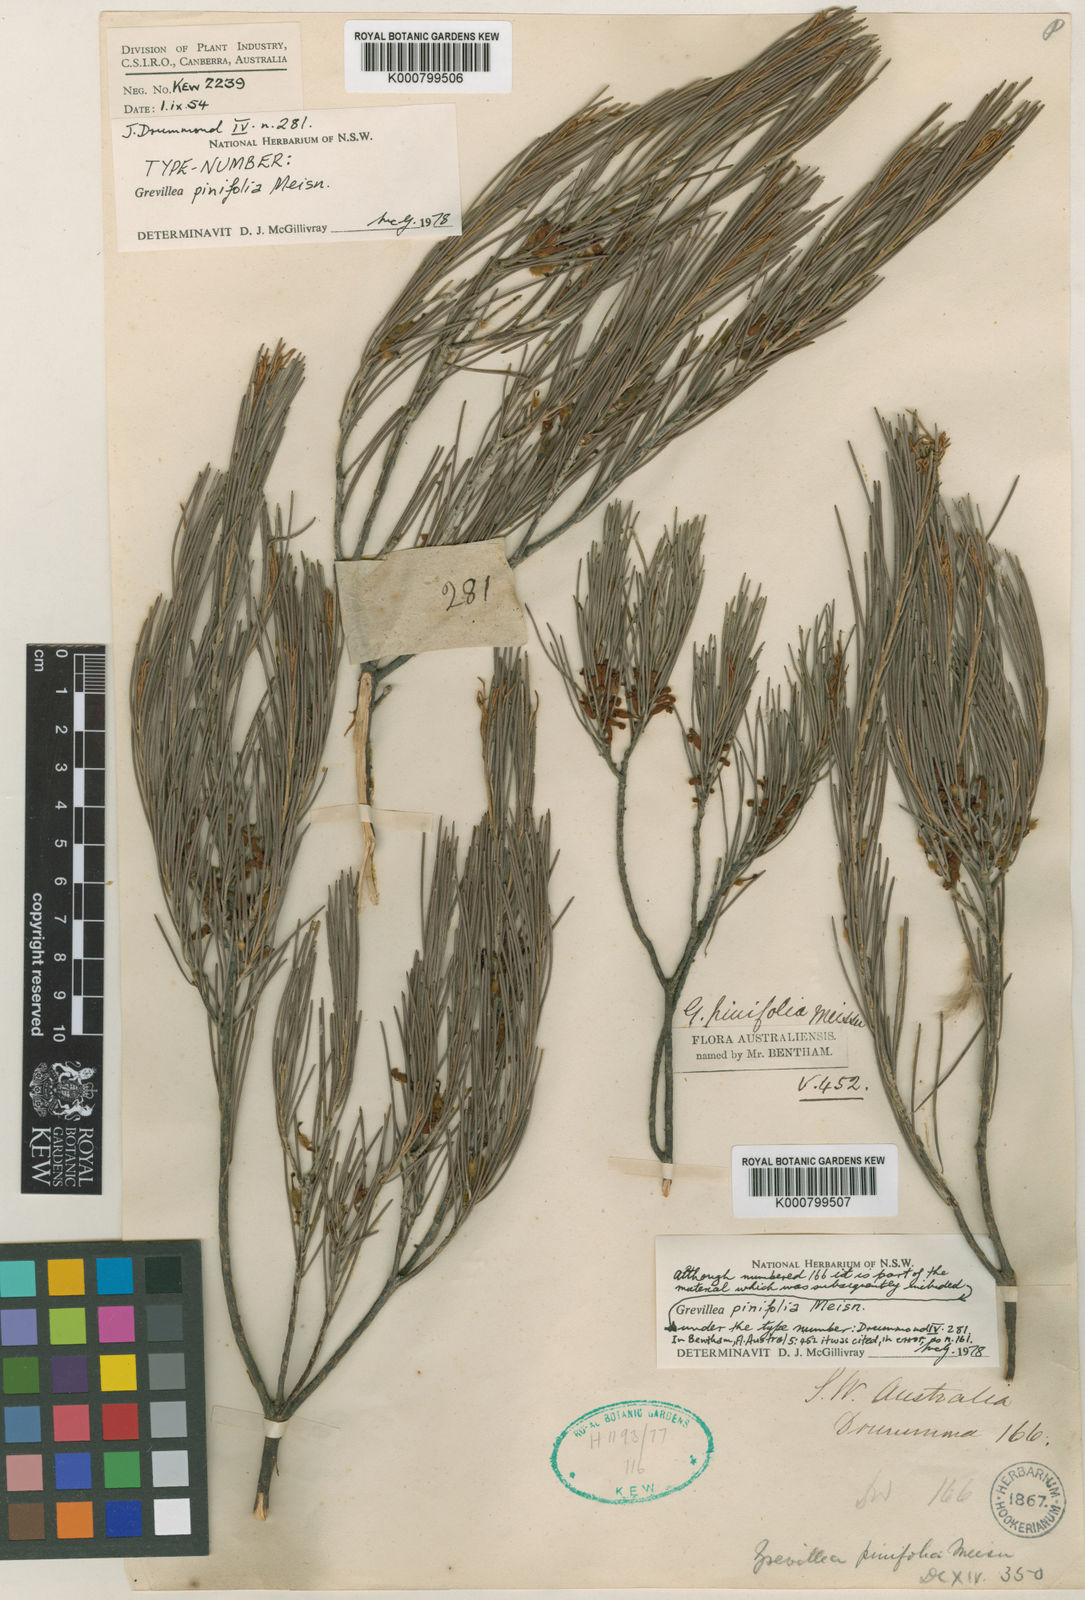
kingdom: Plantae
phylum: Tracheophyta
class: Magnoliopsida
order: Proteales
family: Proteaceae
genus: Grevillea
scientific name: Grevillea pinifolia
